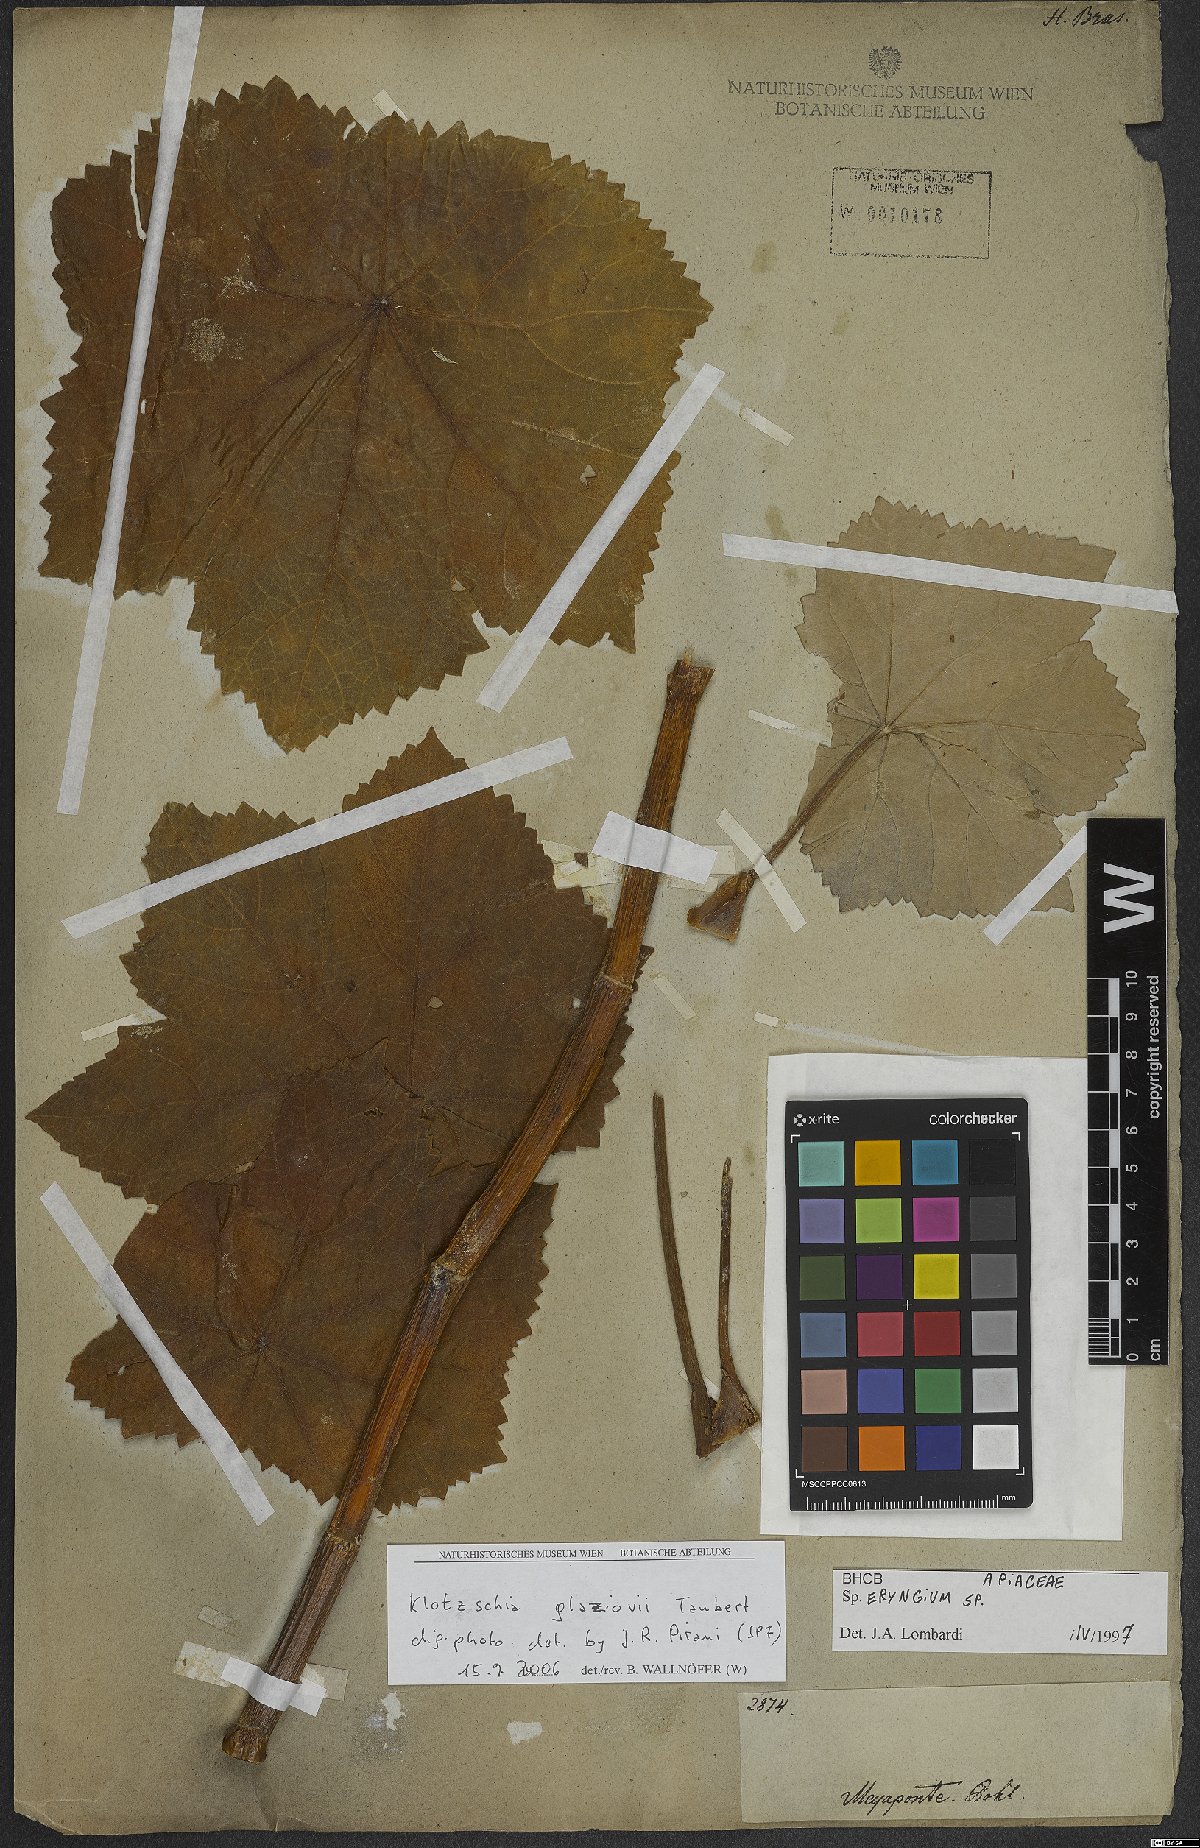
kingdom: Plantae
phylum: Tracheophyta
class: Magnoliopsida
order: Apiales
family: Apiaceae
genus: Klotzschia
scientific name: Klotzschia glaziovii
